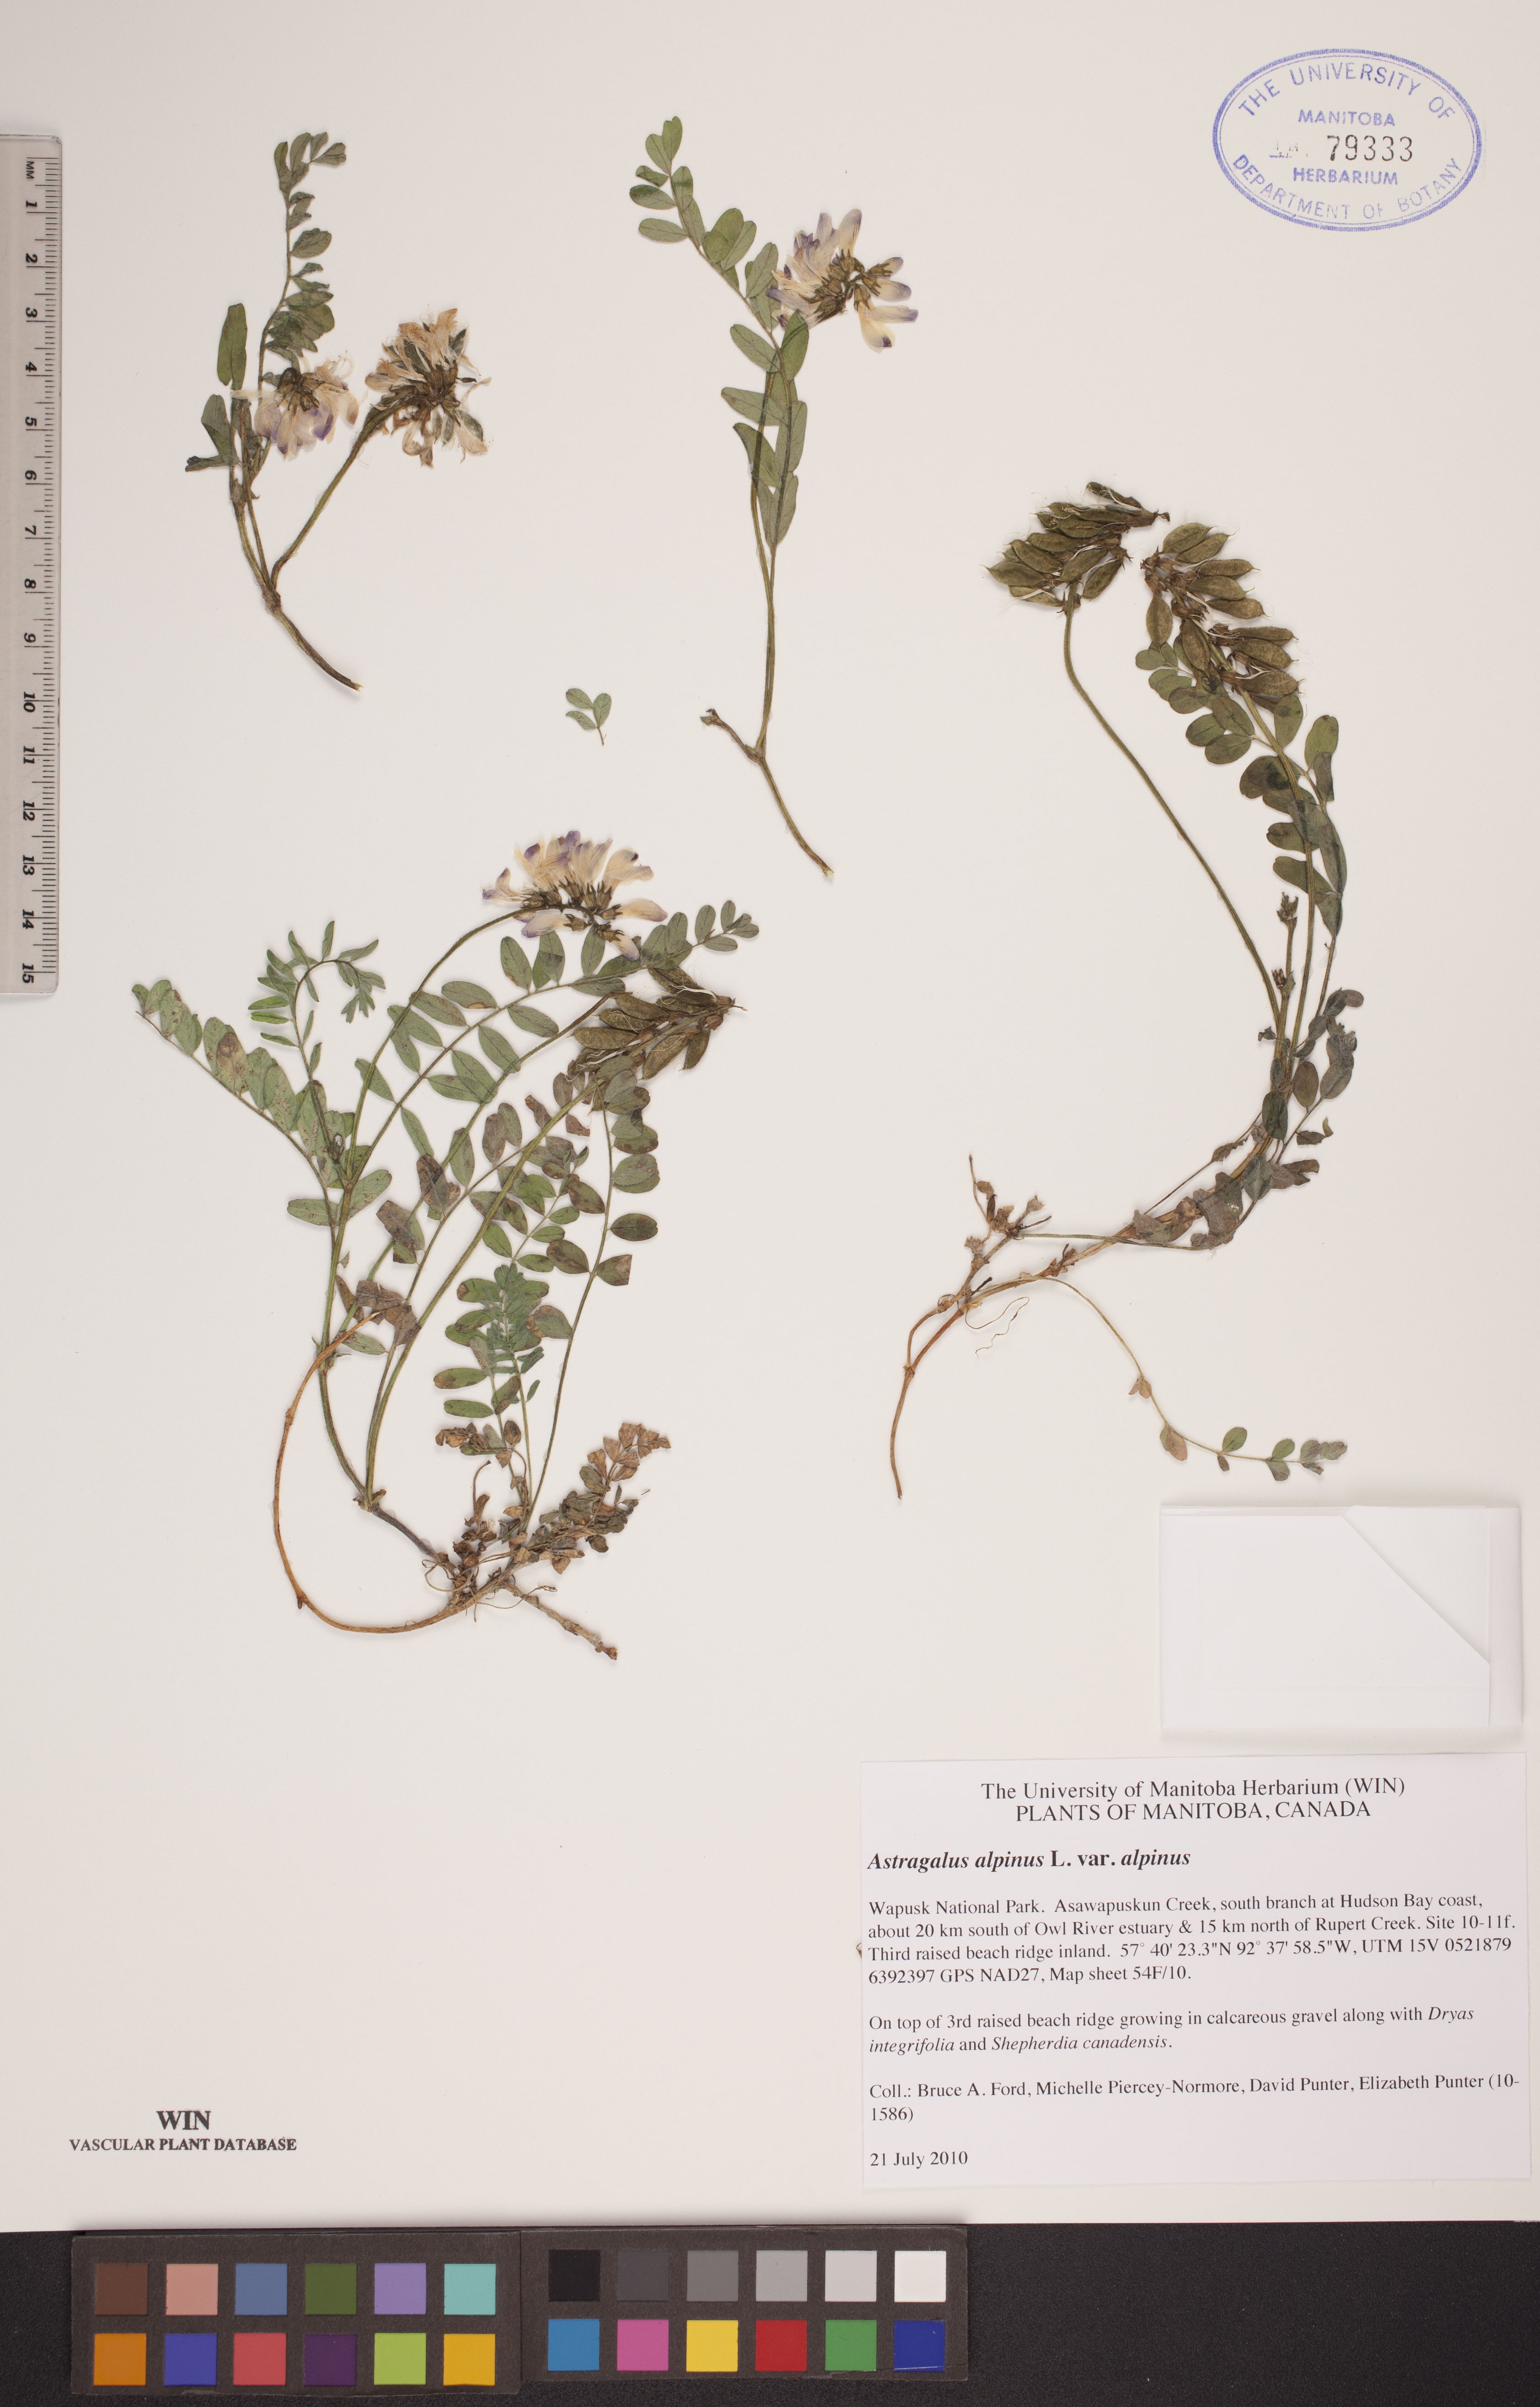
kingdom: Plantae
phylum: Tracheophyta
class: Magnoliopsida
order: Fabales
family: Fabaceae
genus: Astragalus
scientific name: Astragalus alpinus
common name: Alpine milk-vetch
